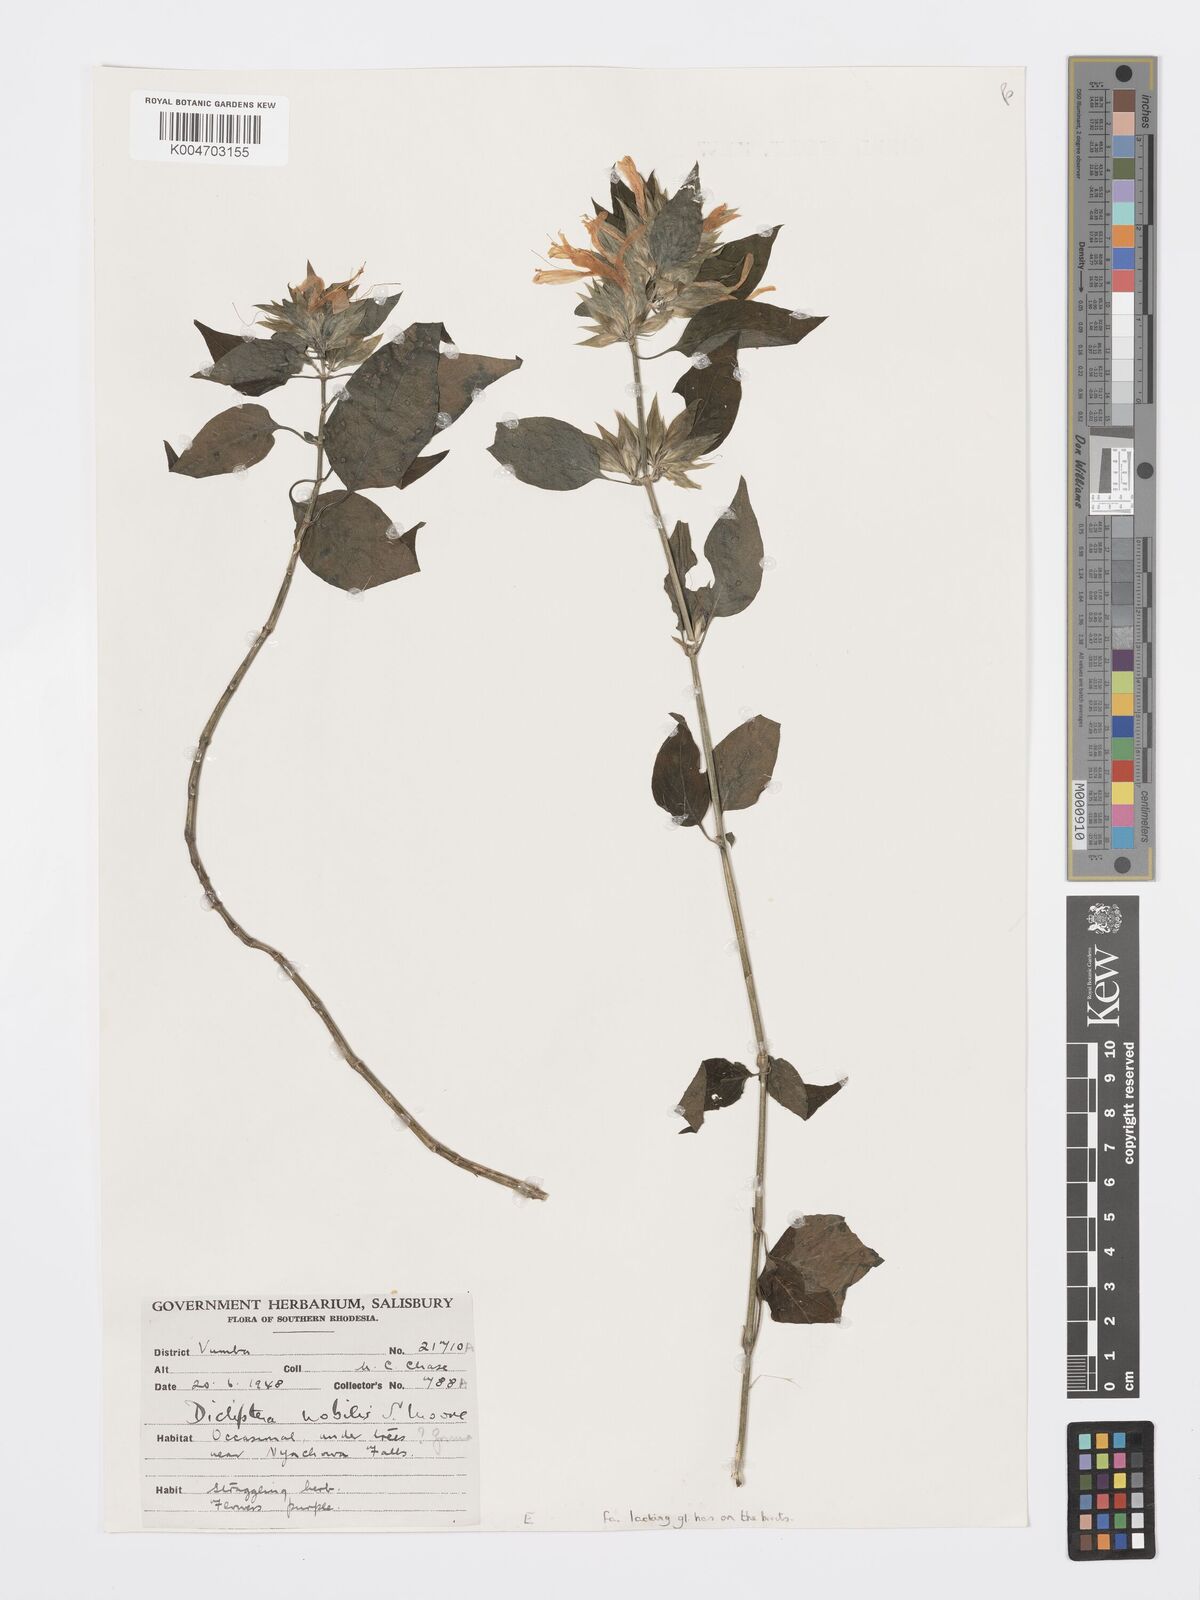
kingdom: Plantae
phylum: Tracheophyta
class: Magnoliopsida
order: Lamiales
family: Acanthaceae
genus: Dicliptera
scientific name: Dicliptera clinopodia
